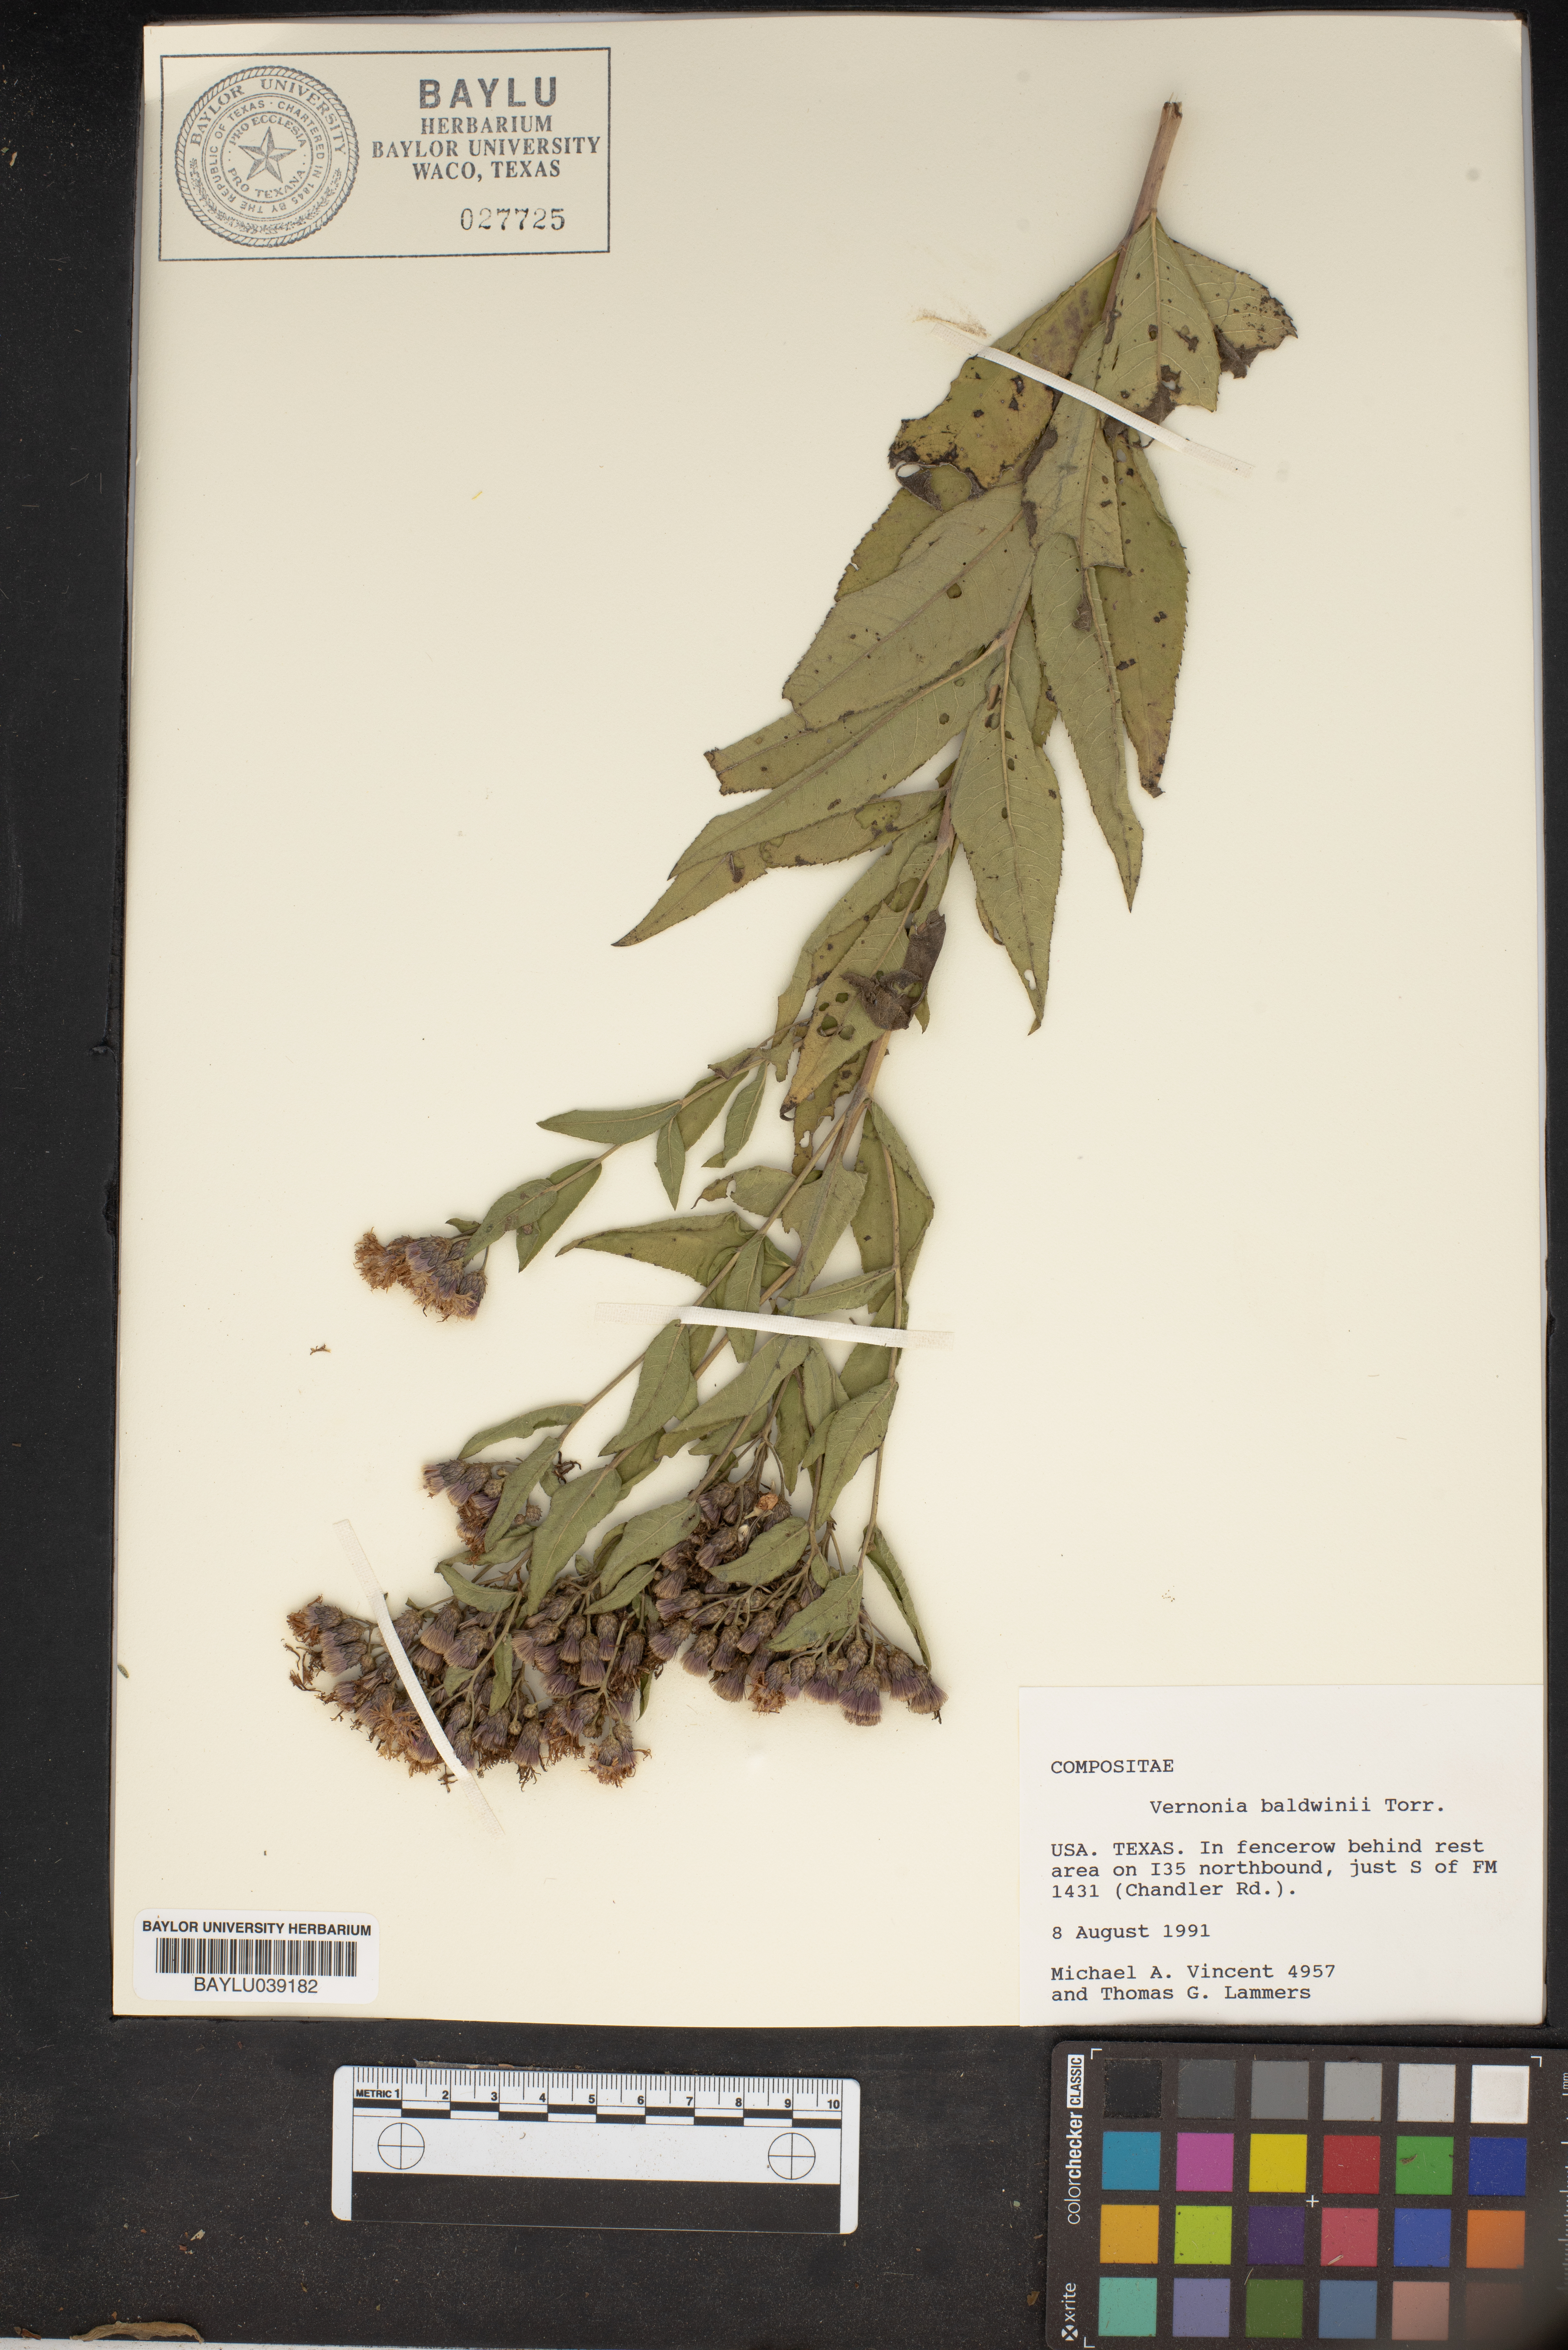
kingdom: Plantae
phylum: Tracheophyta
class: Magnoliopsida
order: Asterales
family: Asteraceae
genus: Vernonia
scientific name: Vernonia baldwinii
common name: Western ironweed
